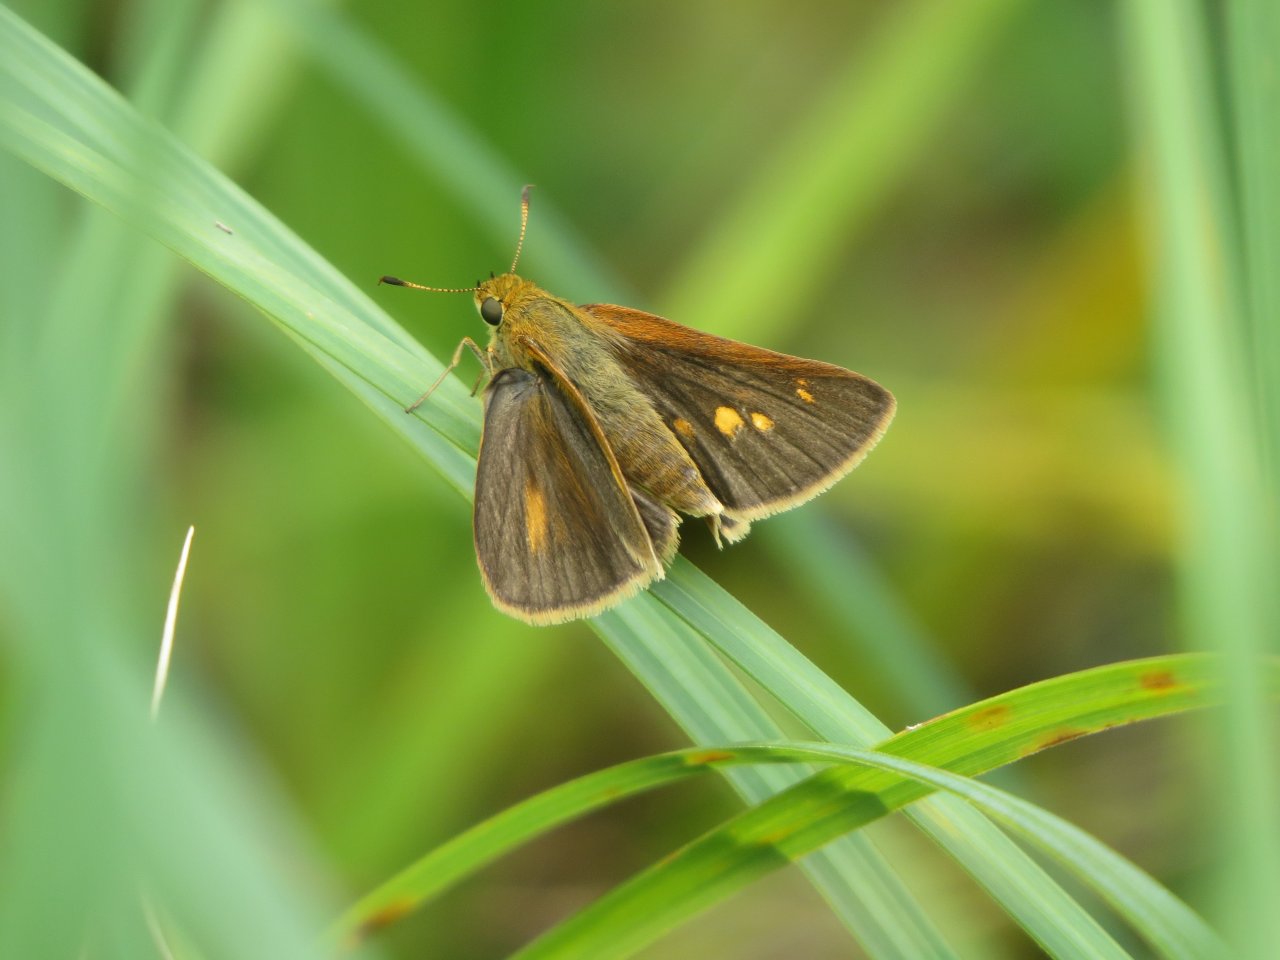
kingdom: Animalia
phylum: Arthropoda
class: Insecta
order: Lepidoptera
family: Hesperiidae
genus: Euphyes
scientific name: Euphyes dion
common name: Dion Skipper
